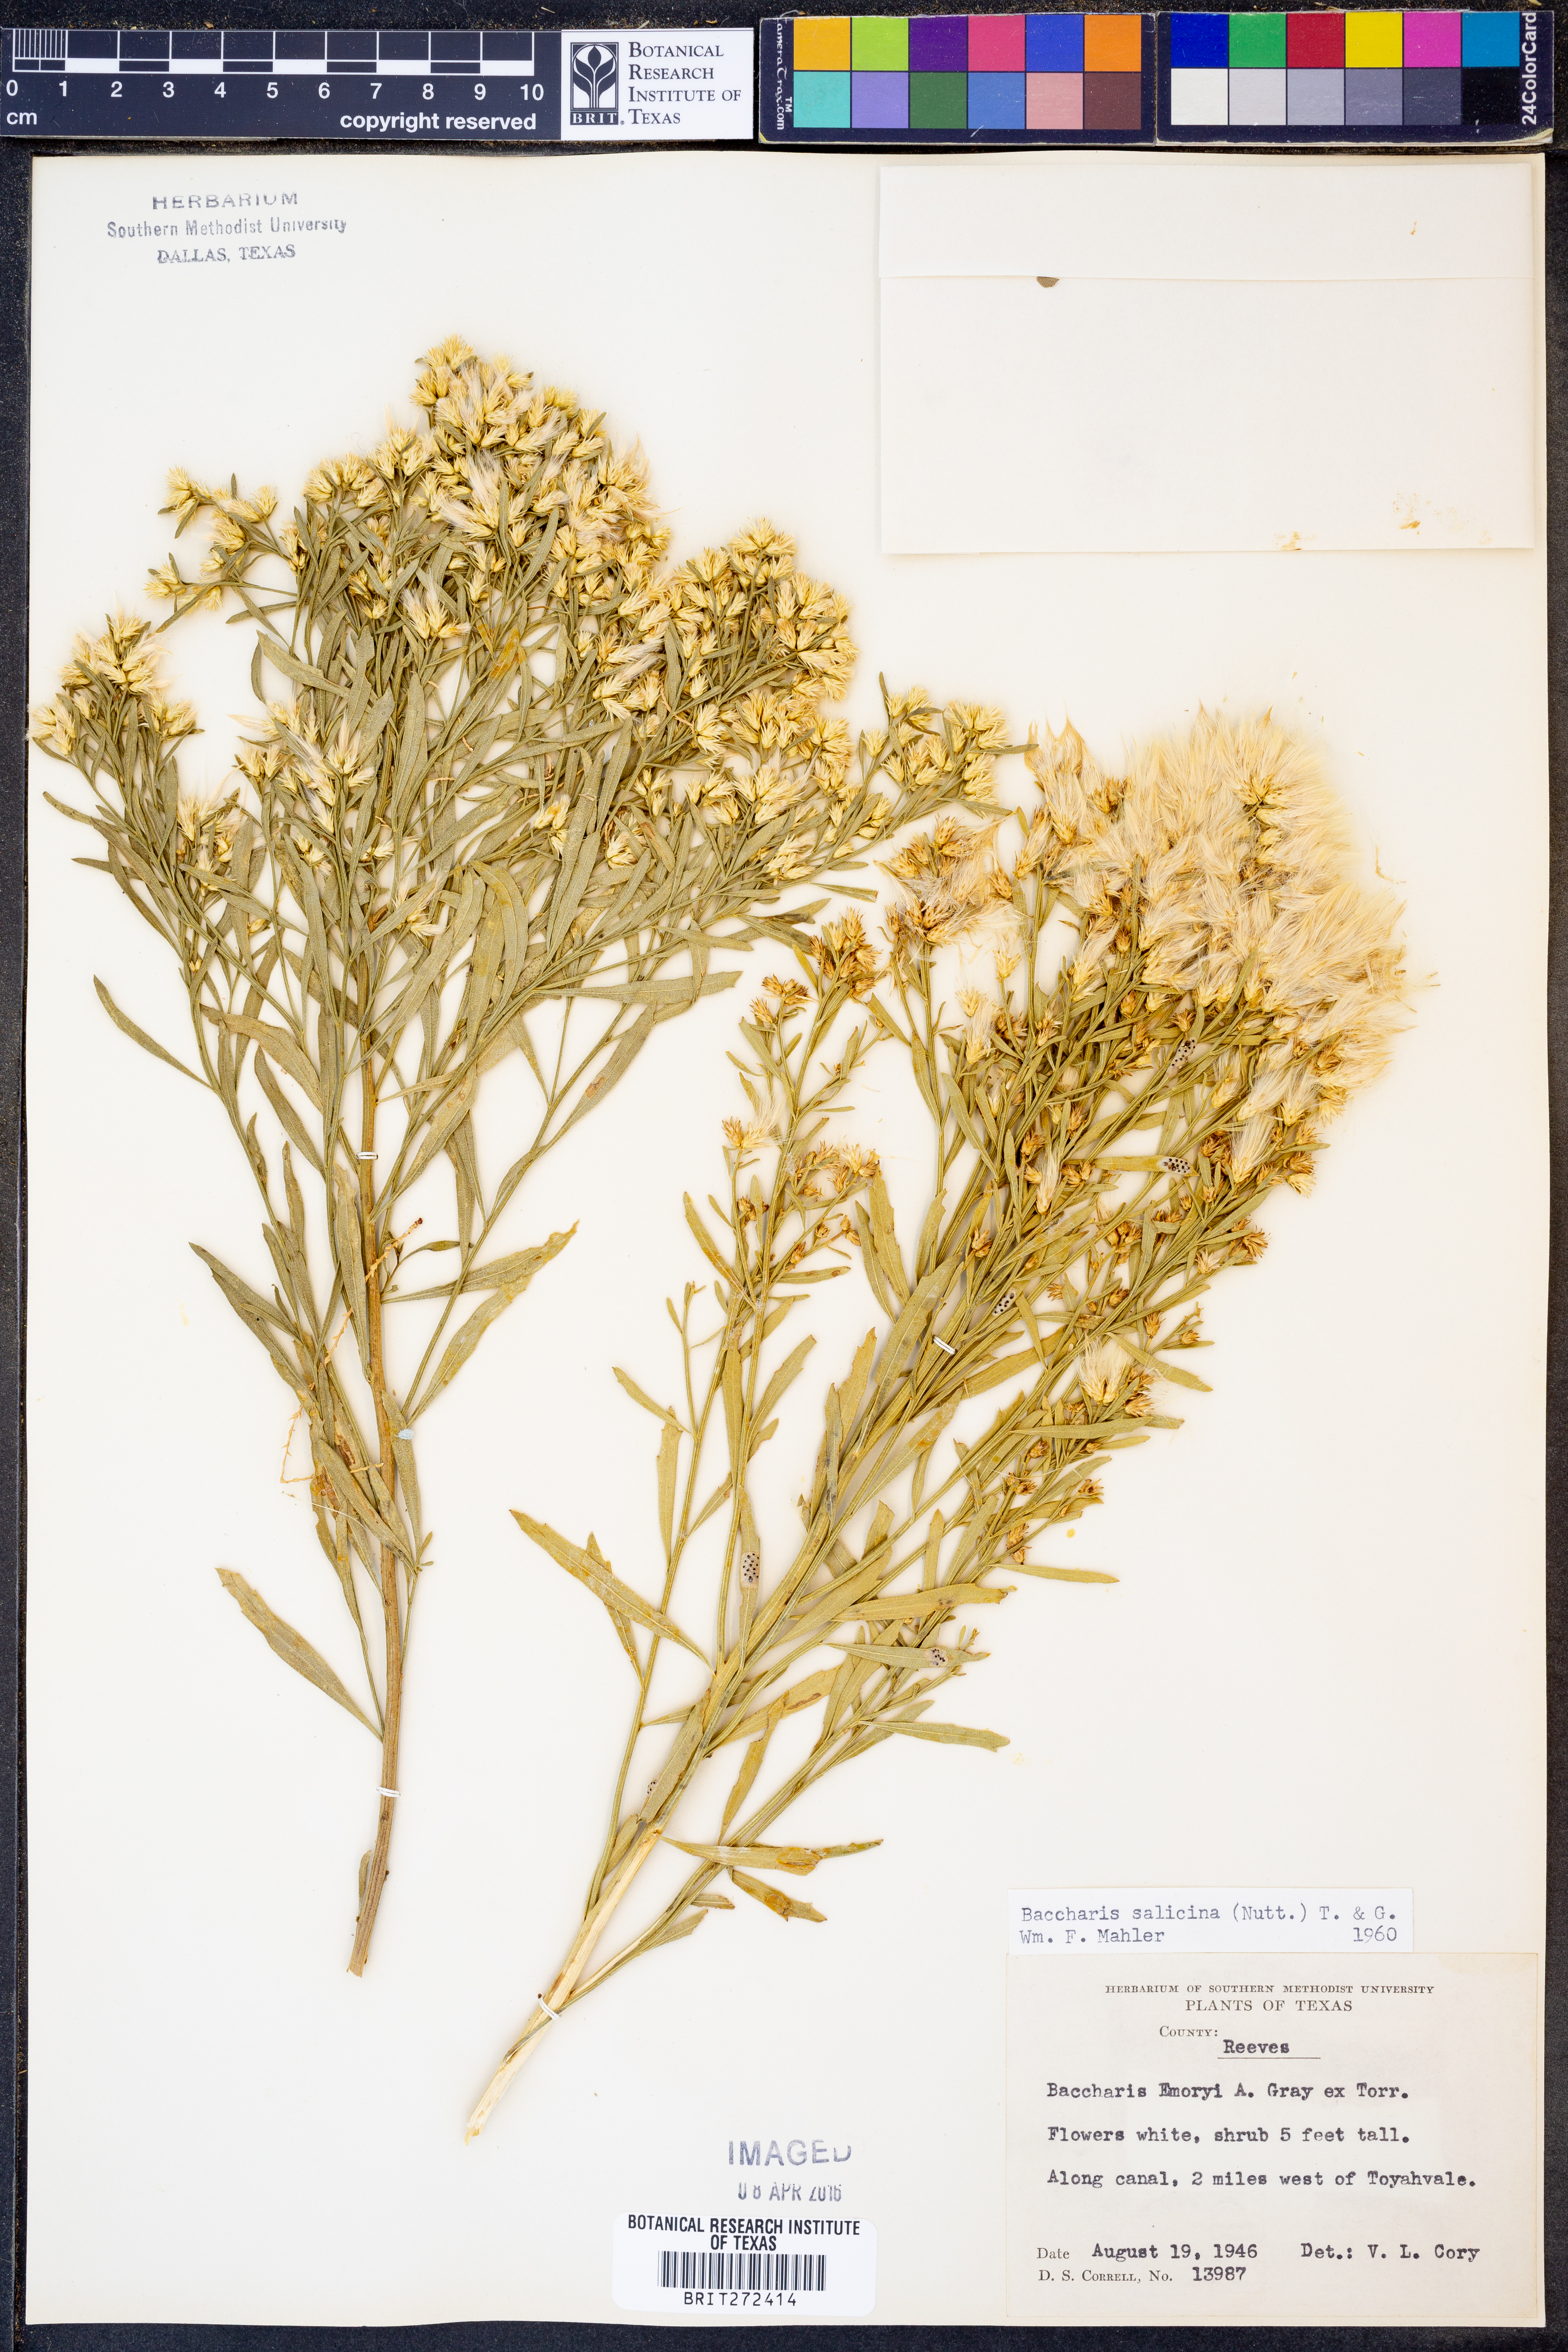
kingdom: Plantae
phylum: Tracheophyta
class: Magnoliopsida
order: Asterales
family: Asteraceae
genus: Baccharis
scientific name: Baccharis salicina
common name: Willow baccharis
